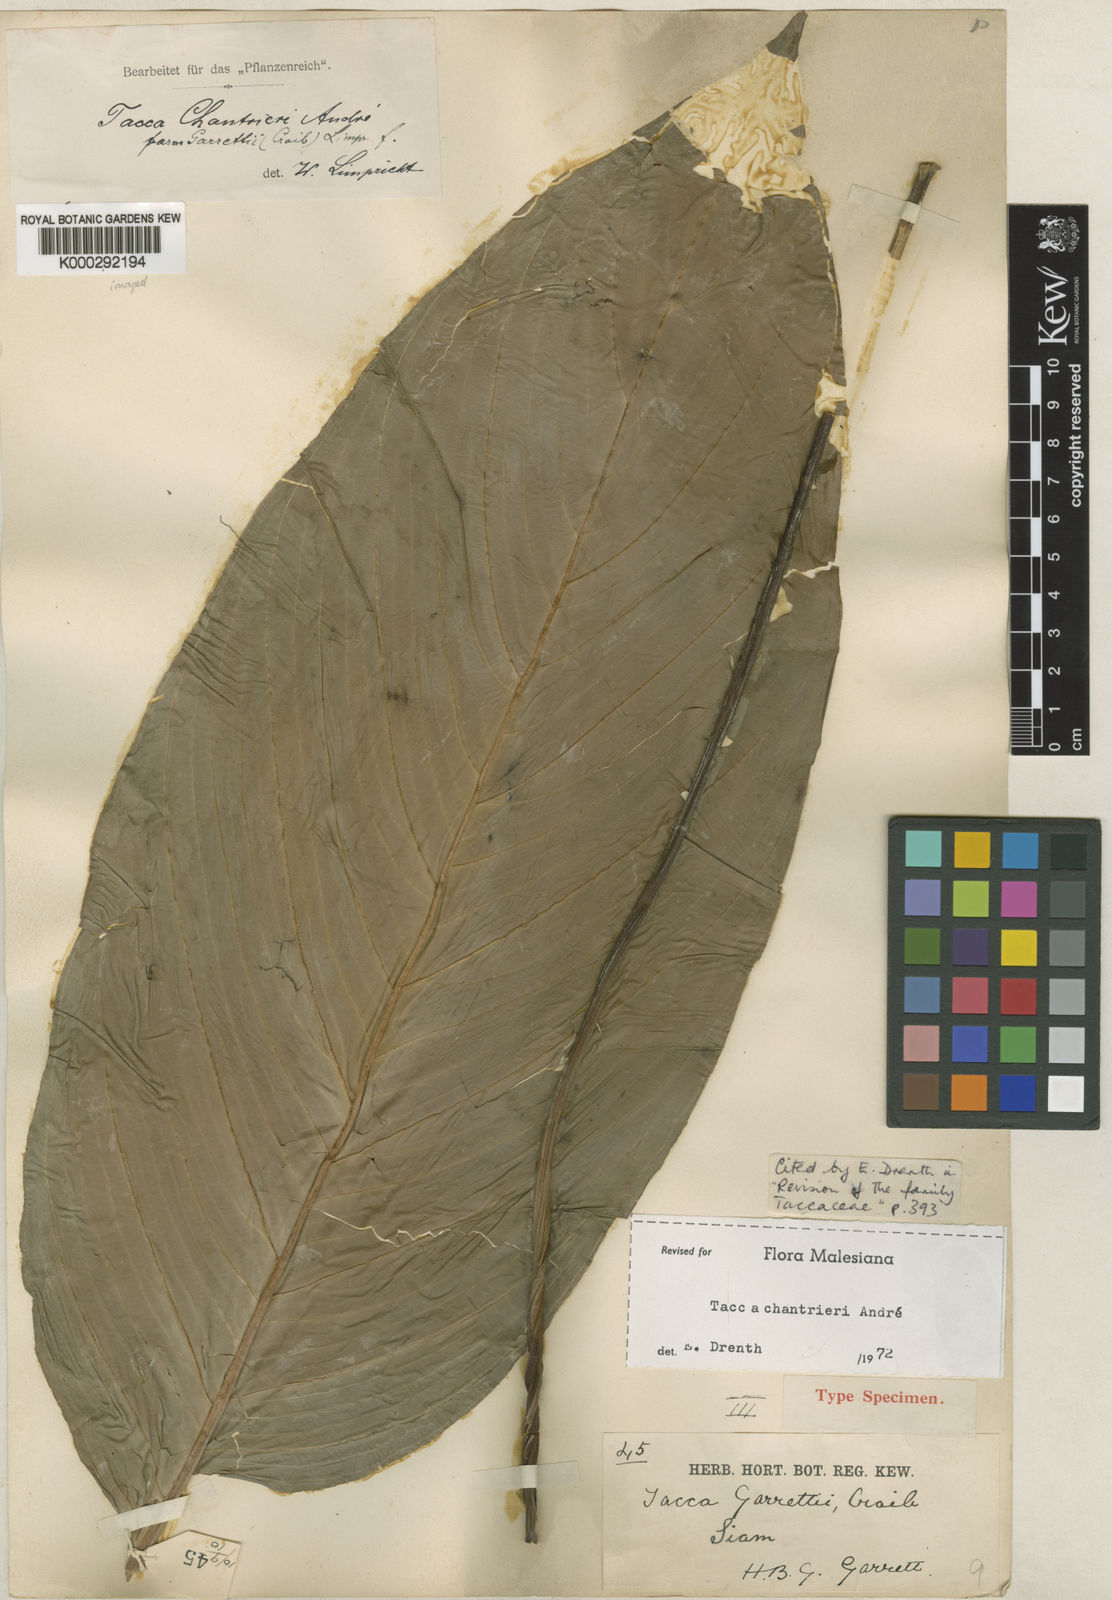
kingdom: Plantae
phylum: Tracheophyta
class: Liliopsida
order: Dioscoreales
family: Dioscoreaceae
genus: Tacca
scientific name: Tacca
